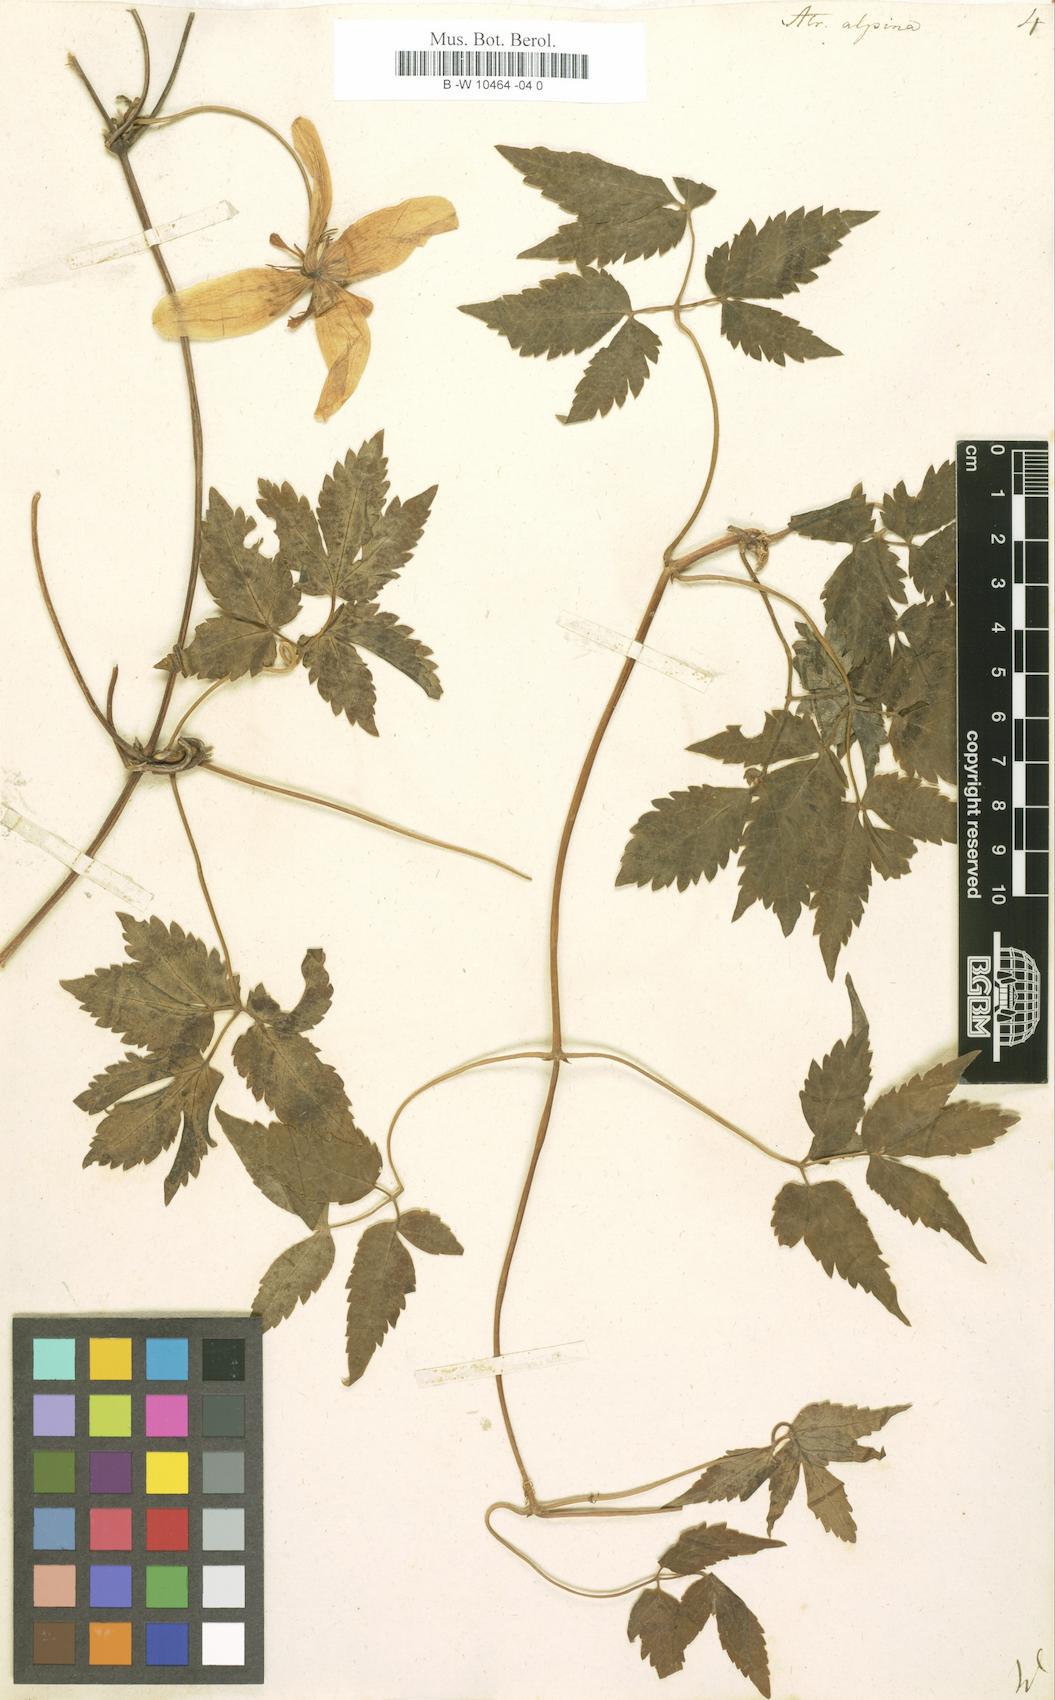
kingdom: Plantae
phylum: Tracheophyta
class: Magnoliopsida
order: Ranunculales
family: Ranunculaceae
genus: Clematis
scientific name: Clematis alpina
